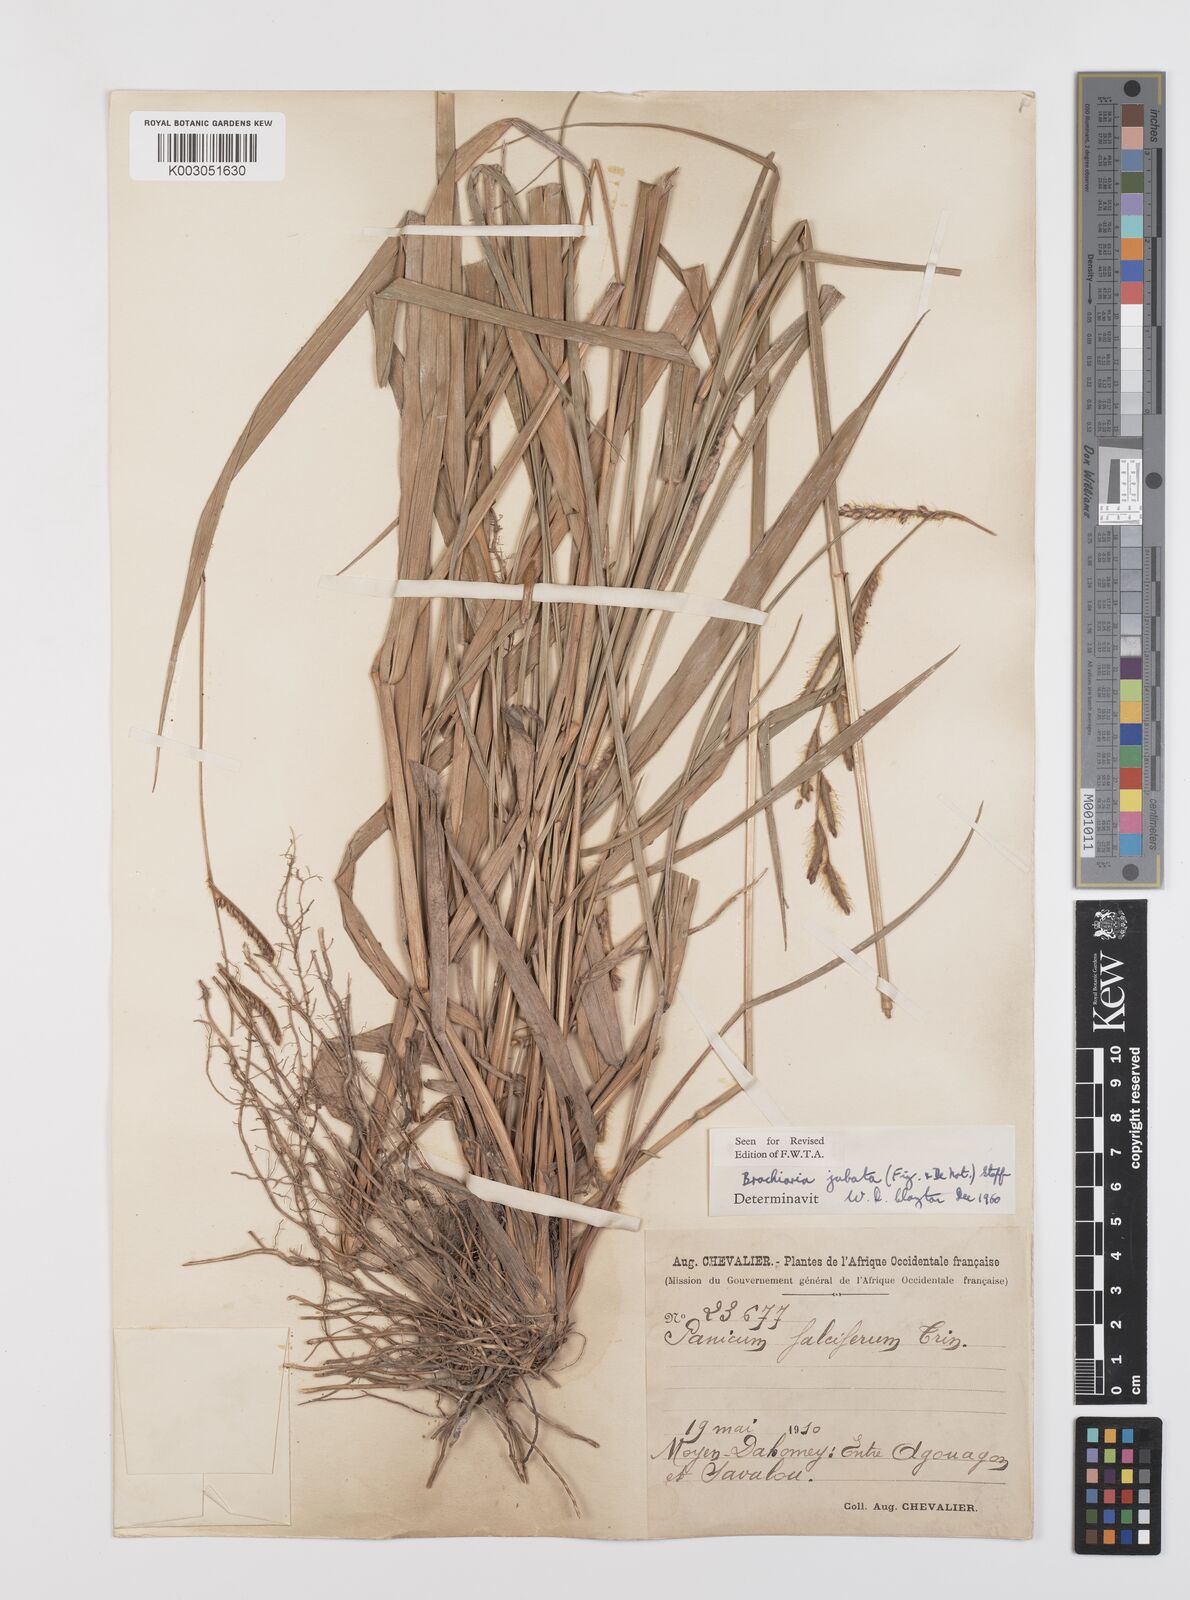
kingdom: Plantae
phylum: Tracheophyta
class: Liliopsida
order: Poales
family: Poaceae
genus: Urochloa
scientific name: Urochloa jubata
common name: Buffalograss
